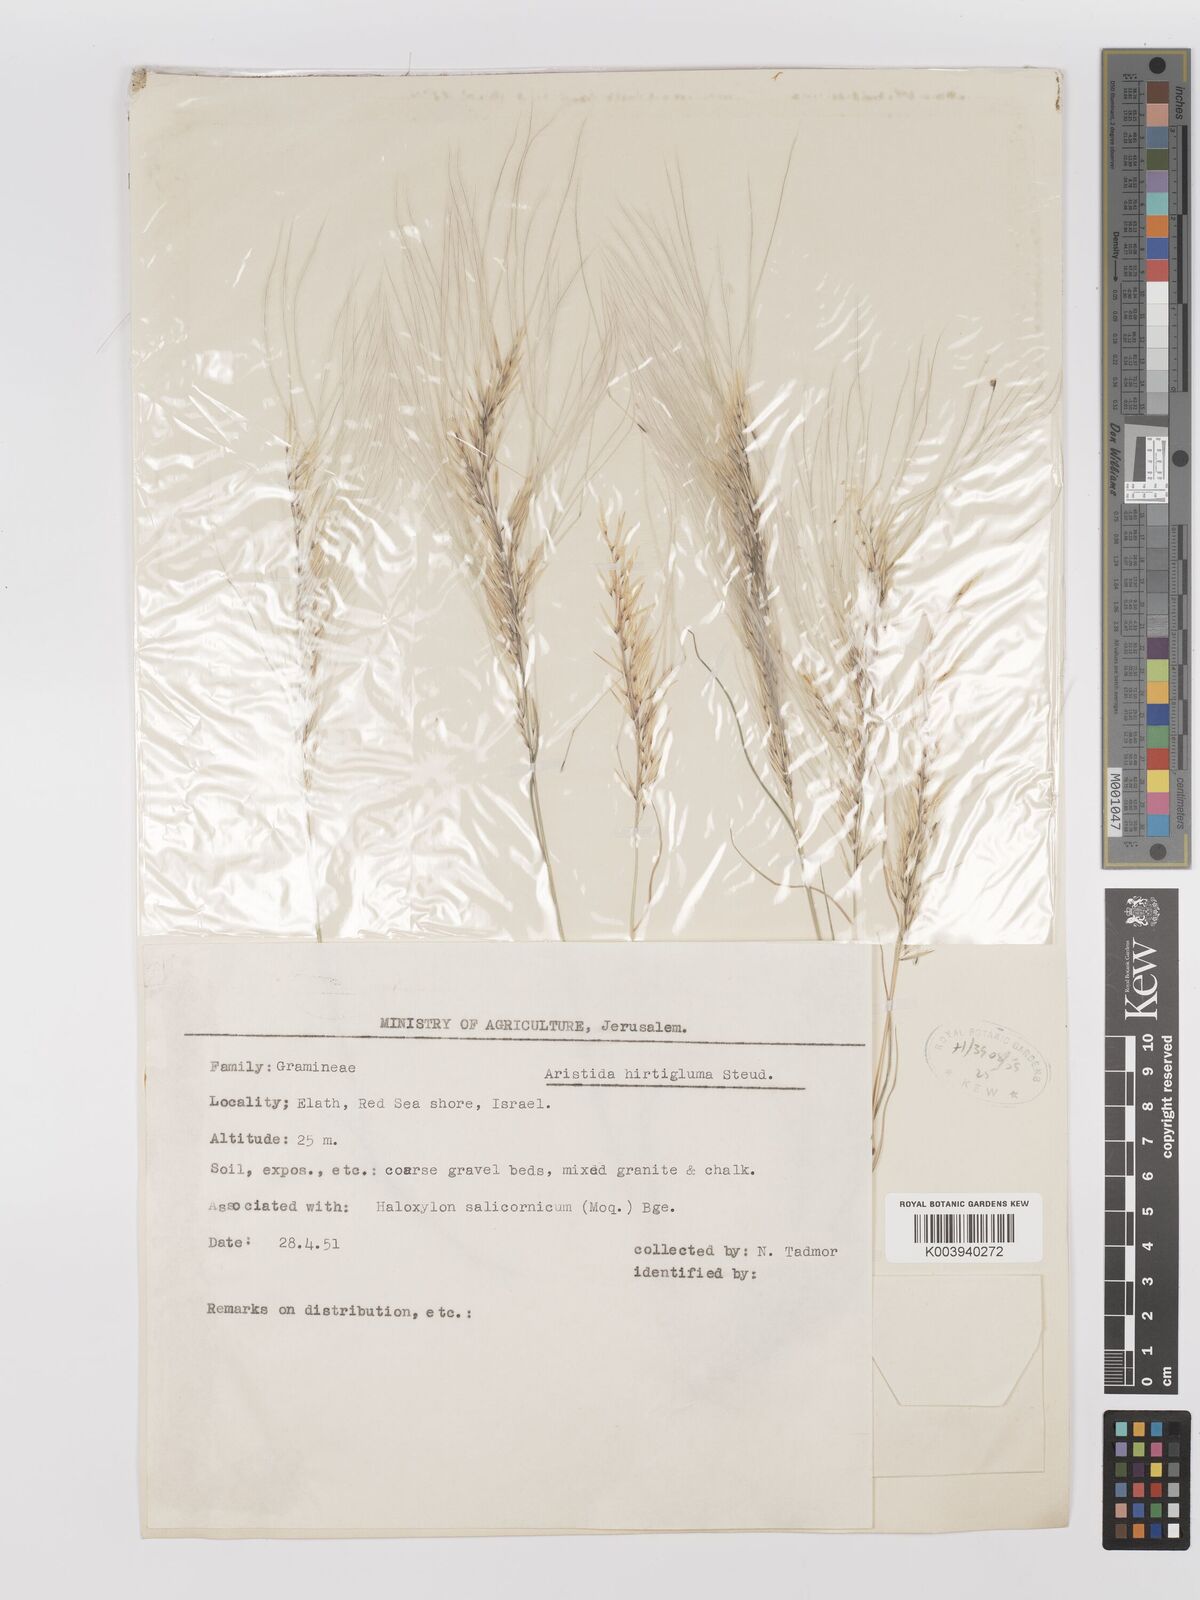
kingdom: Plantae
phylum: Tracheophyta
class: Liliopsida
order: Poales
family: Poaceae
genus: Stipagrostis
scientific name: Stipagrostis hirtigluma
